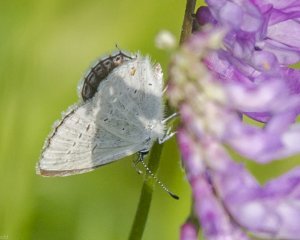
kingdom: Animalia
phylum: Arthropoda
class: Insecta
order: Lepidoptera
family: Lycaenidae
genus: Elkalyce
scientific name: Elkalyce amyntula
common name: Western Tailed-Blue
